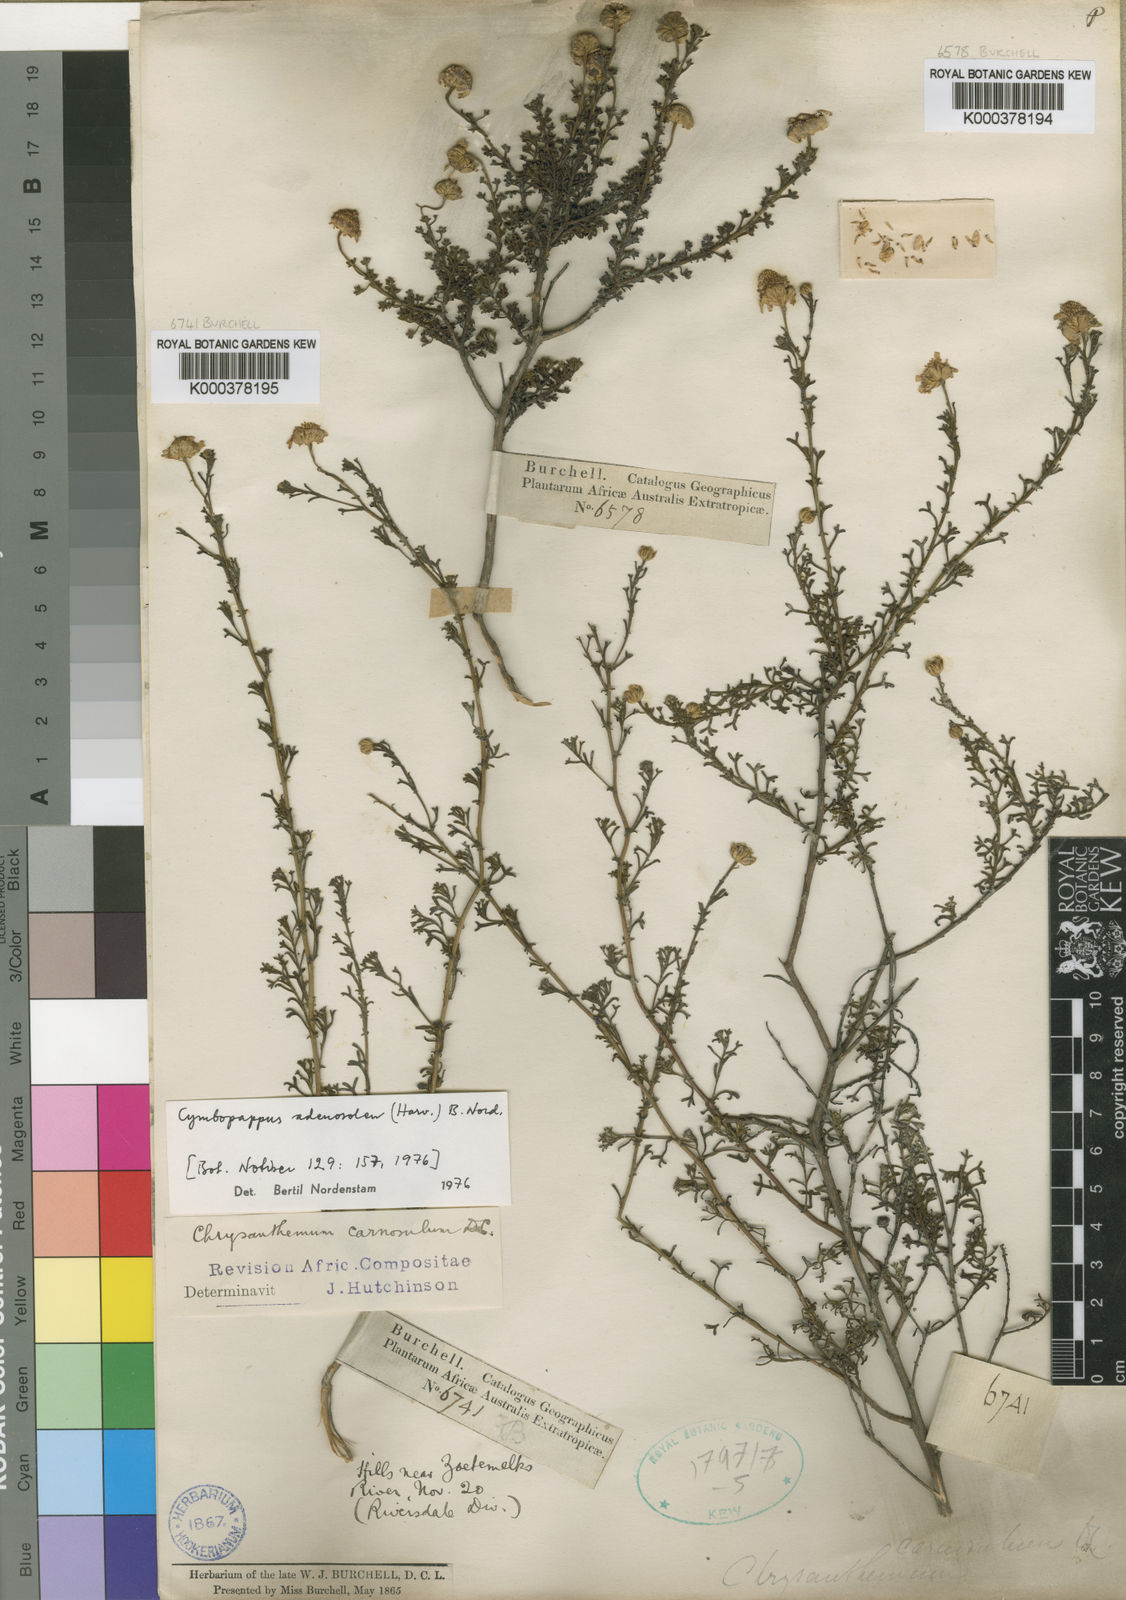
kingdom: Plantae
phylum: Tracheophyta
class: Magnoliopsida
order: Asterales
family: Asteraceae
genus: Cymbopappus
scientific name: Cymbopappus adenosolen
